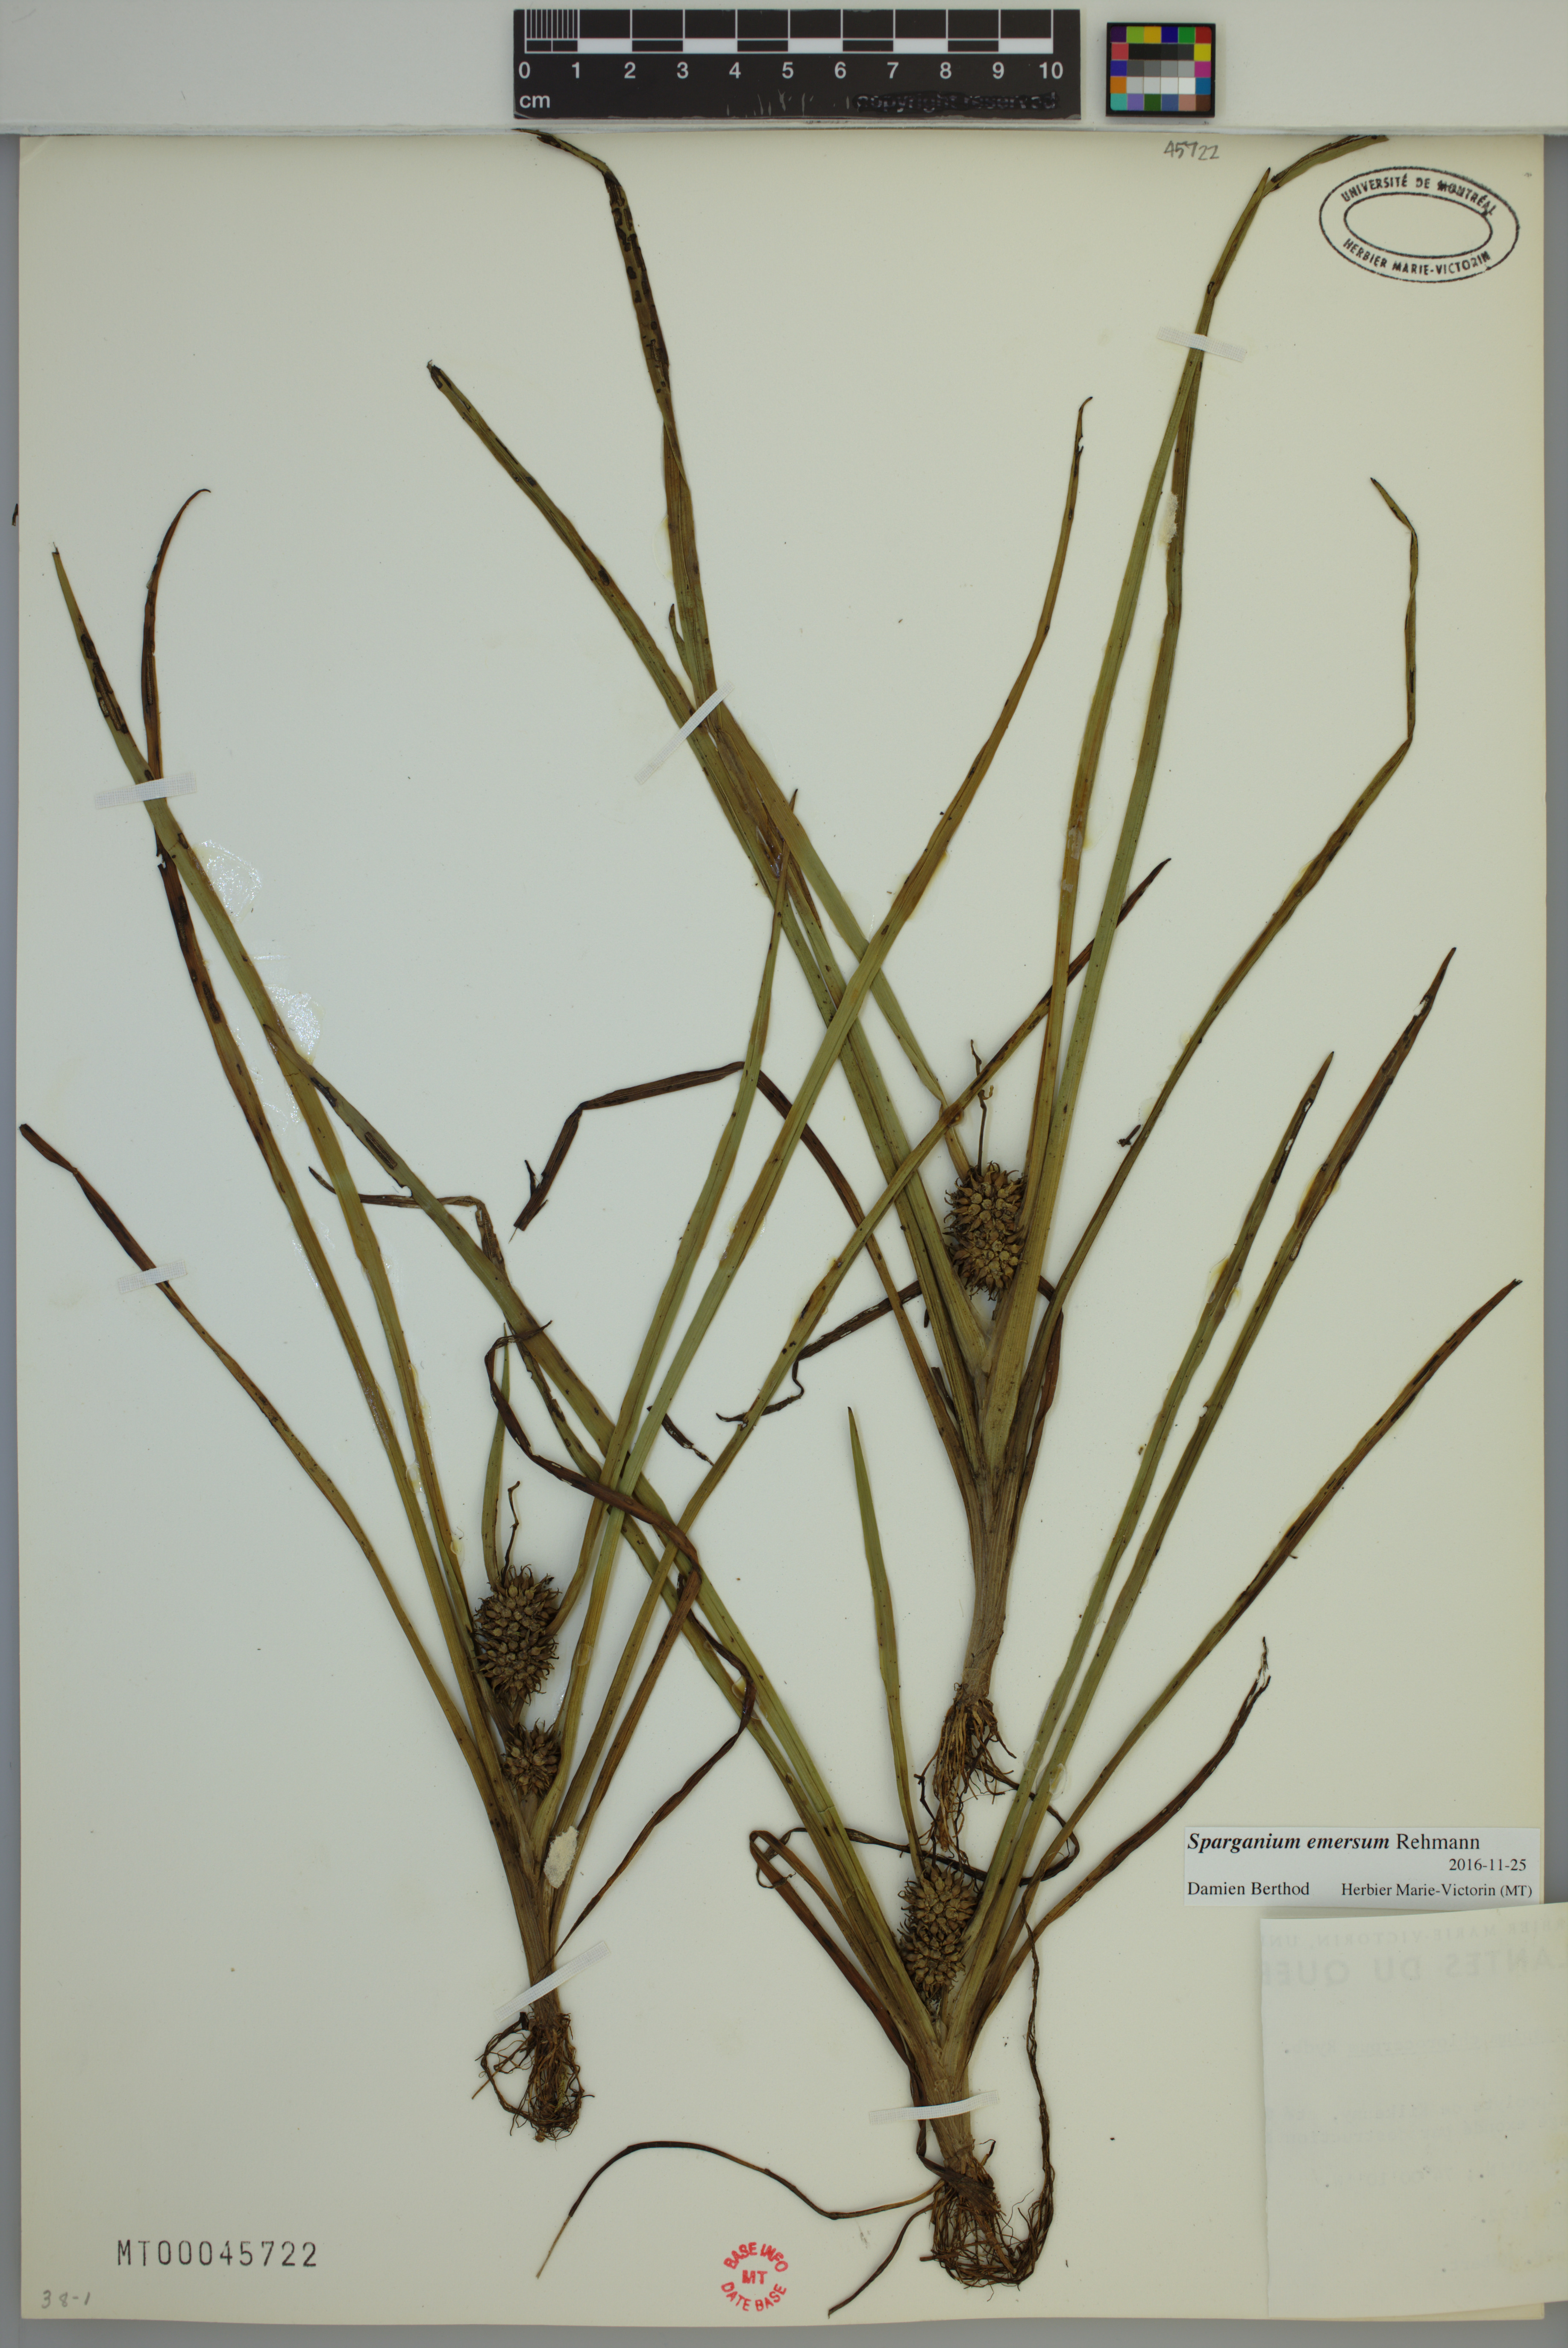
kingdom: Plantae
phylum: Tracheophyta
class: Liliopsida
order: Poales
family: Typhaceae
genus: Sparganium
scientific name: Sparganium emersum
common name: Unbranched bur-reed
